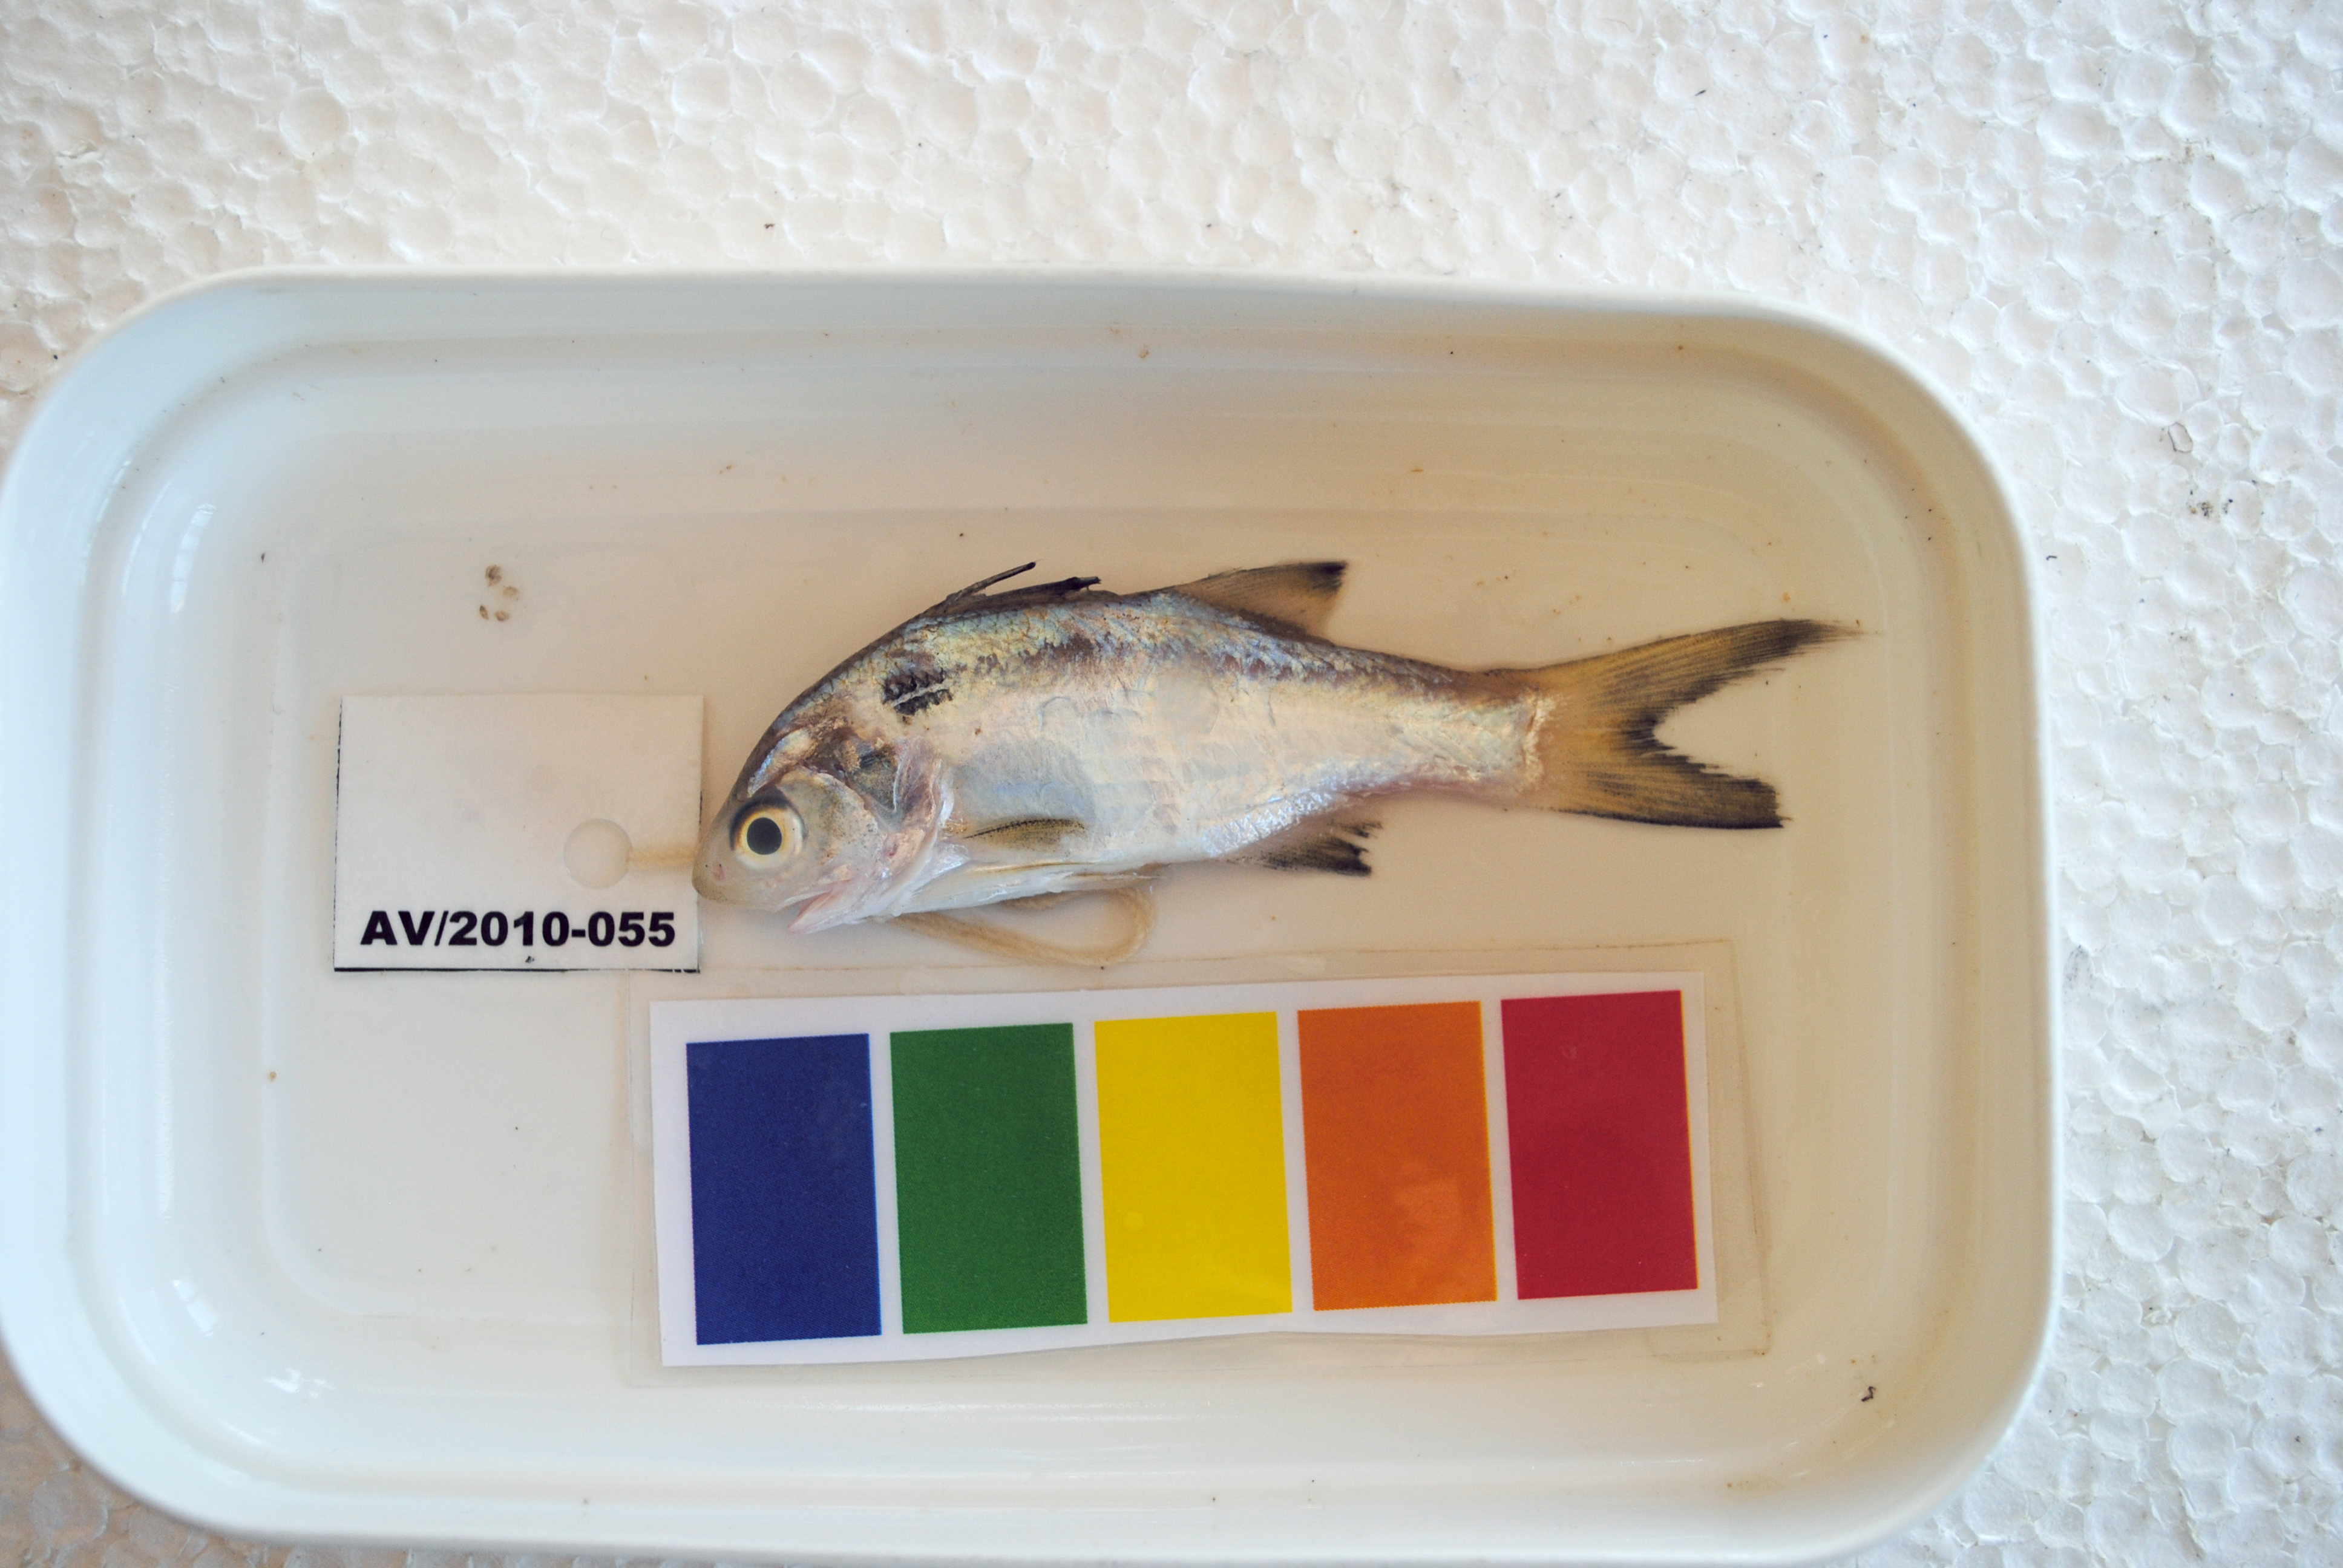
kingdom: Animalia
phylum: Chordata
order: Perciformes
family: Polynemidae
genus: Polydactylus
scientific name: Polydactylus malagasyensis
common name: African blackspot threadfin
